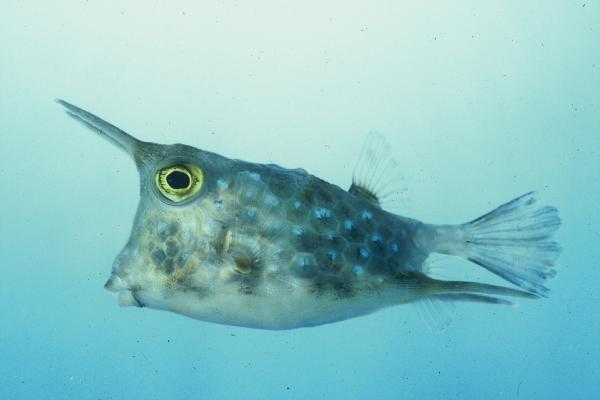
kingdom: Animalia
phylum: Chordata
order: Tetraodontiformes
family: Ostraciidae
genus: Lactoria
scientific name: Lactoria cornuta
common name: Longhorn cowfish
